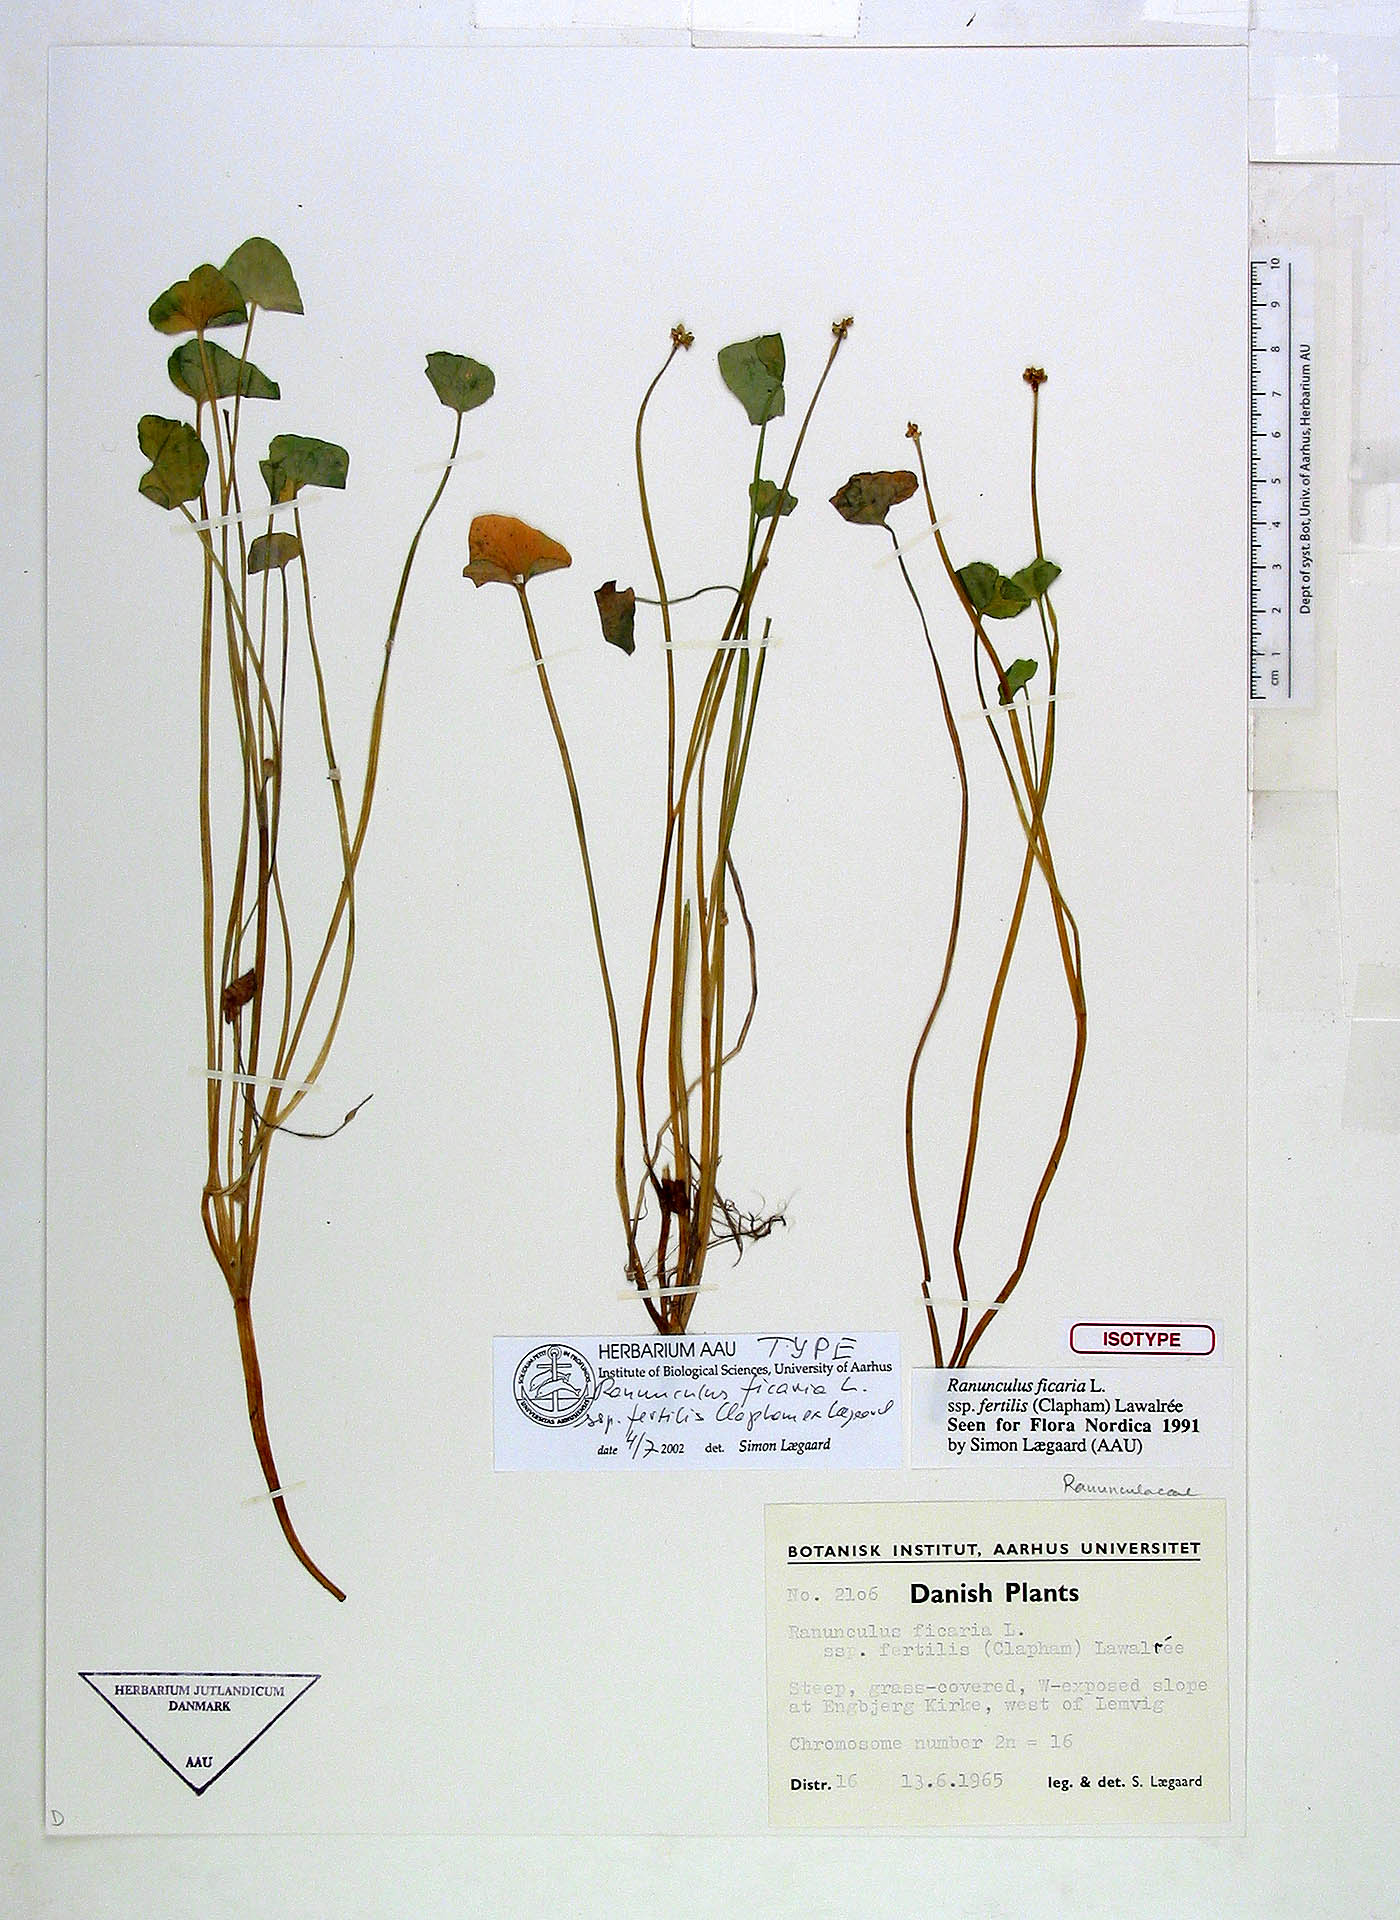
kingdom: Plantae
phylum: Tracheophyta
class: Magnoliopsida
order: Ranunculales
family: Ranunculaceae
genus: Ficaria
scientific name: Ficaria ambigua
